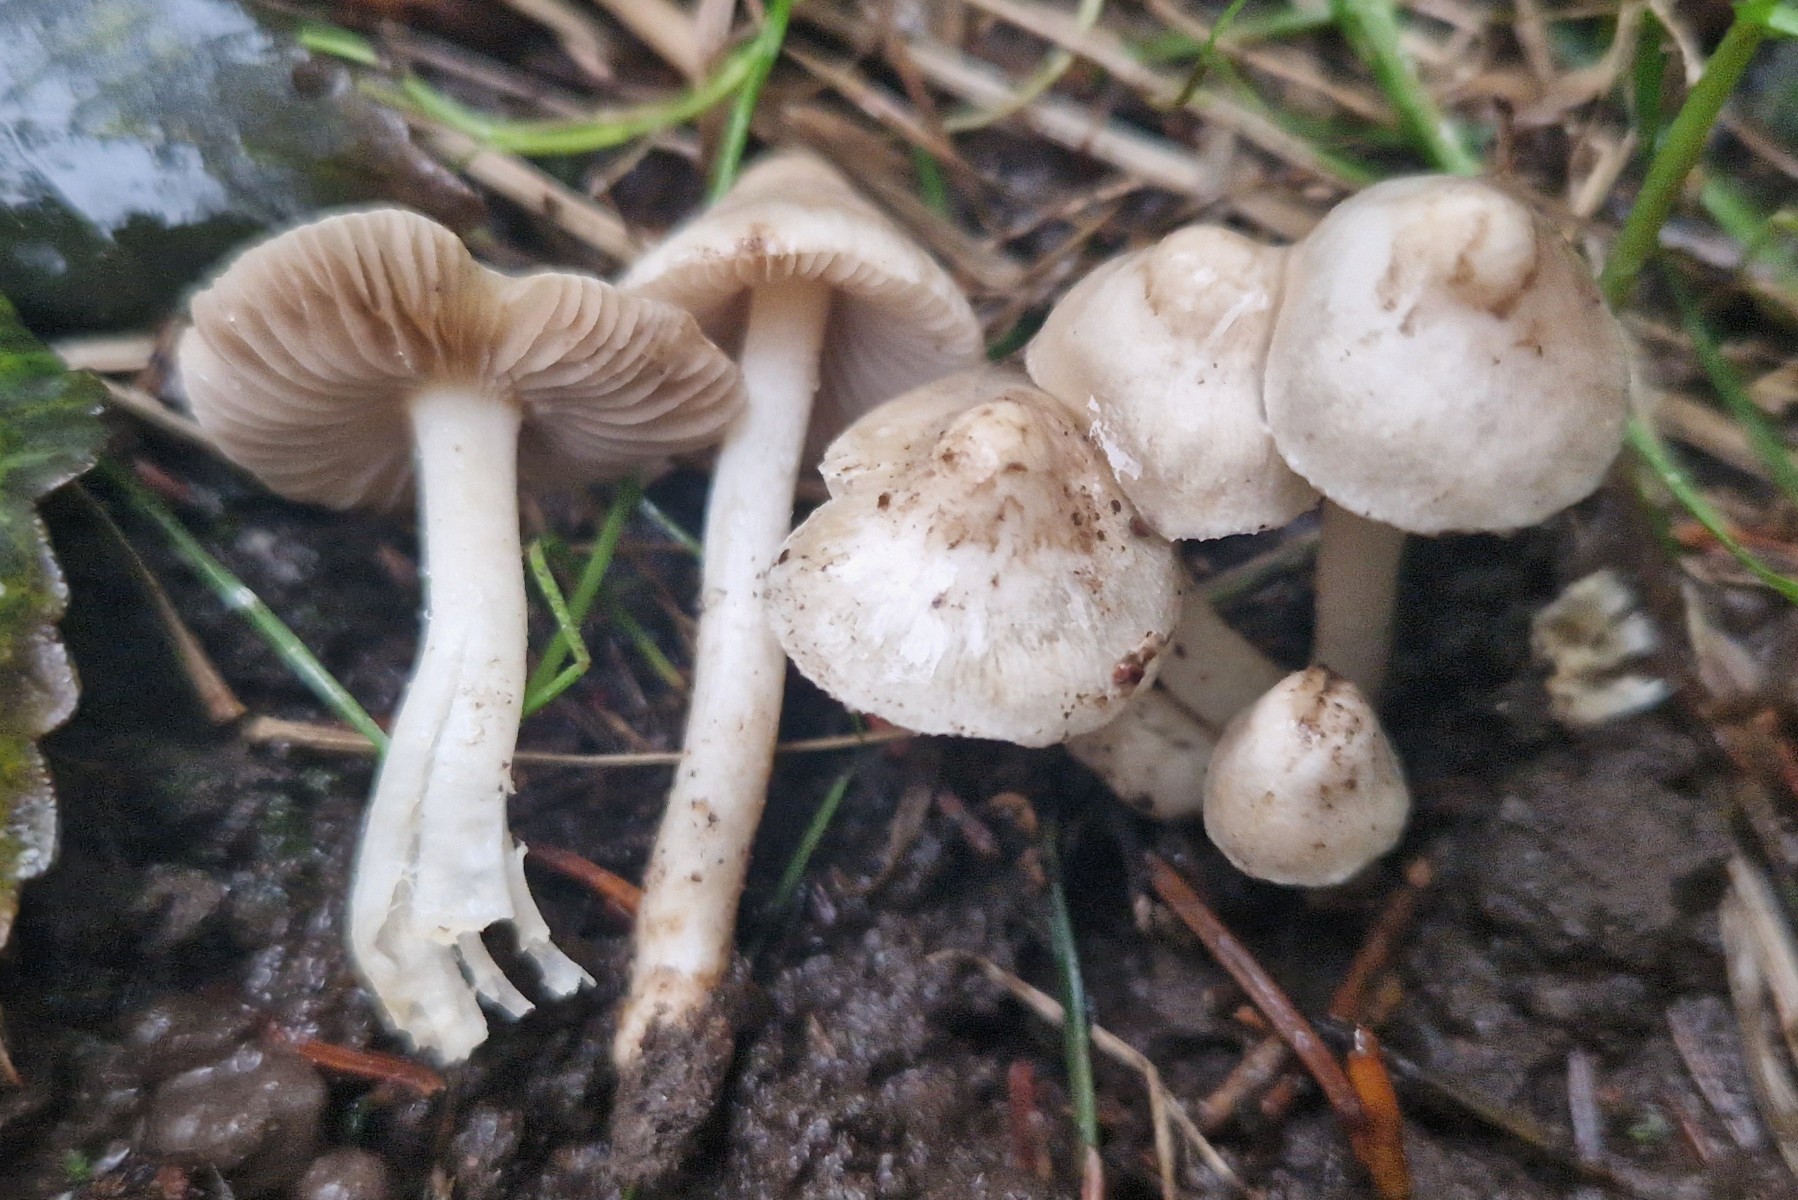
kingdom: Fungi
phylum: Basidiomycota
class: Agaricomycetes
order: Agaricales
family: Inocybaceae
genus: Inocybe
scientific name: Inocybe
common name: almindelig trævlhat
